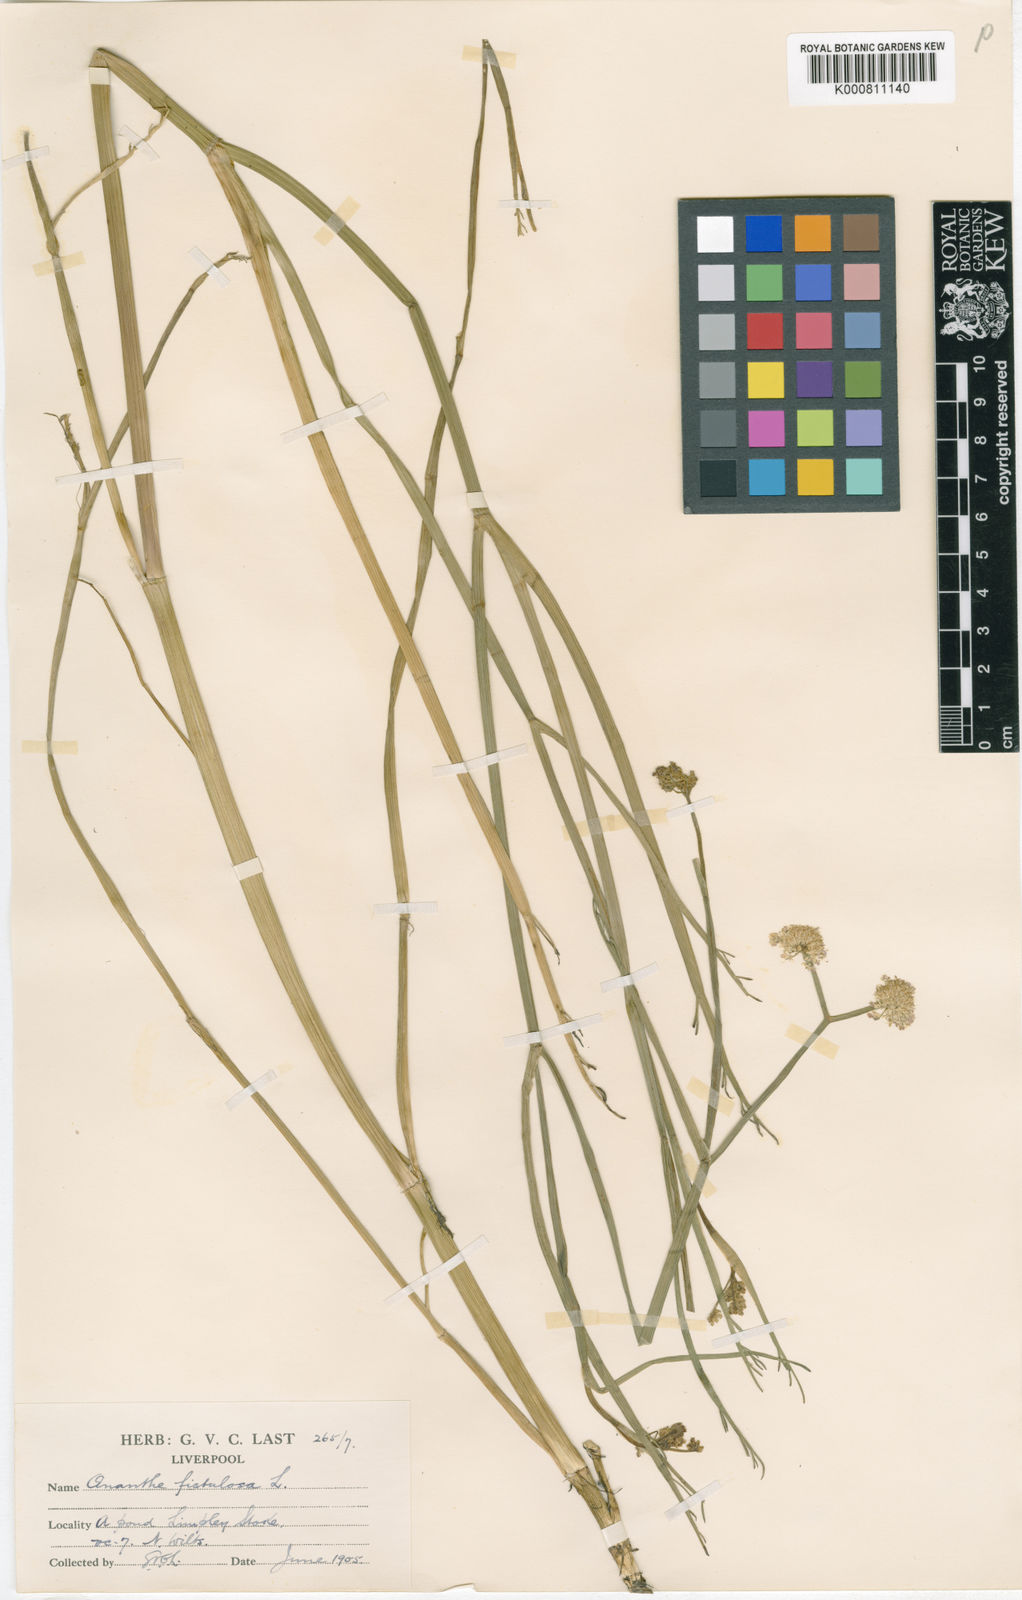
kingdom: Plantae
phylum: Tracheophyta
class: Magnoliopsida
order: Apiales
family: Apiaceae
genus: Oenanthe
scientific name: Oenanthe fistulosa
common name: Tubular water-dropwort
